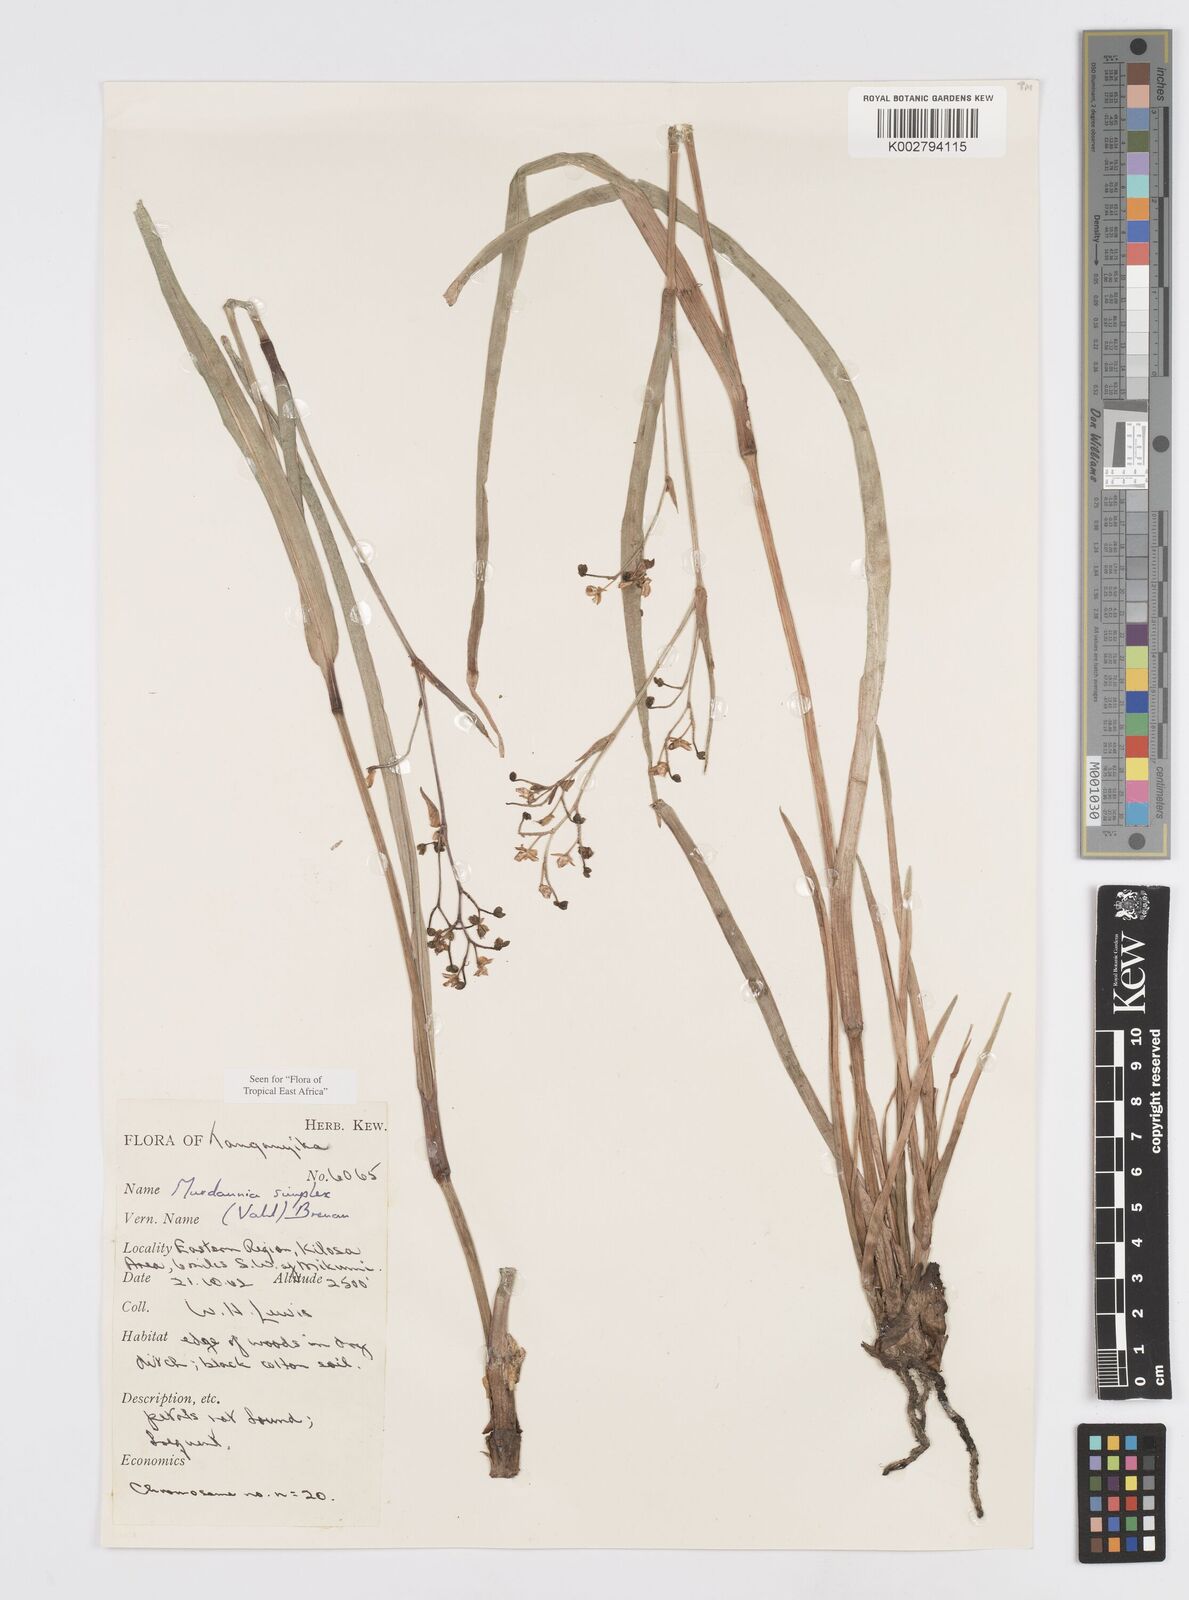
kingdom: Plantae
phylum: Tracheophyta
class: Liliopsida
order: Commelinales
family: Commelinaceae
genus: Murdannia
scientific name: Murdannia simplex
